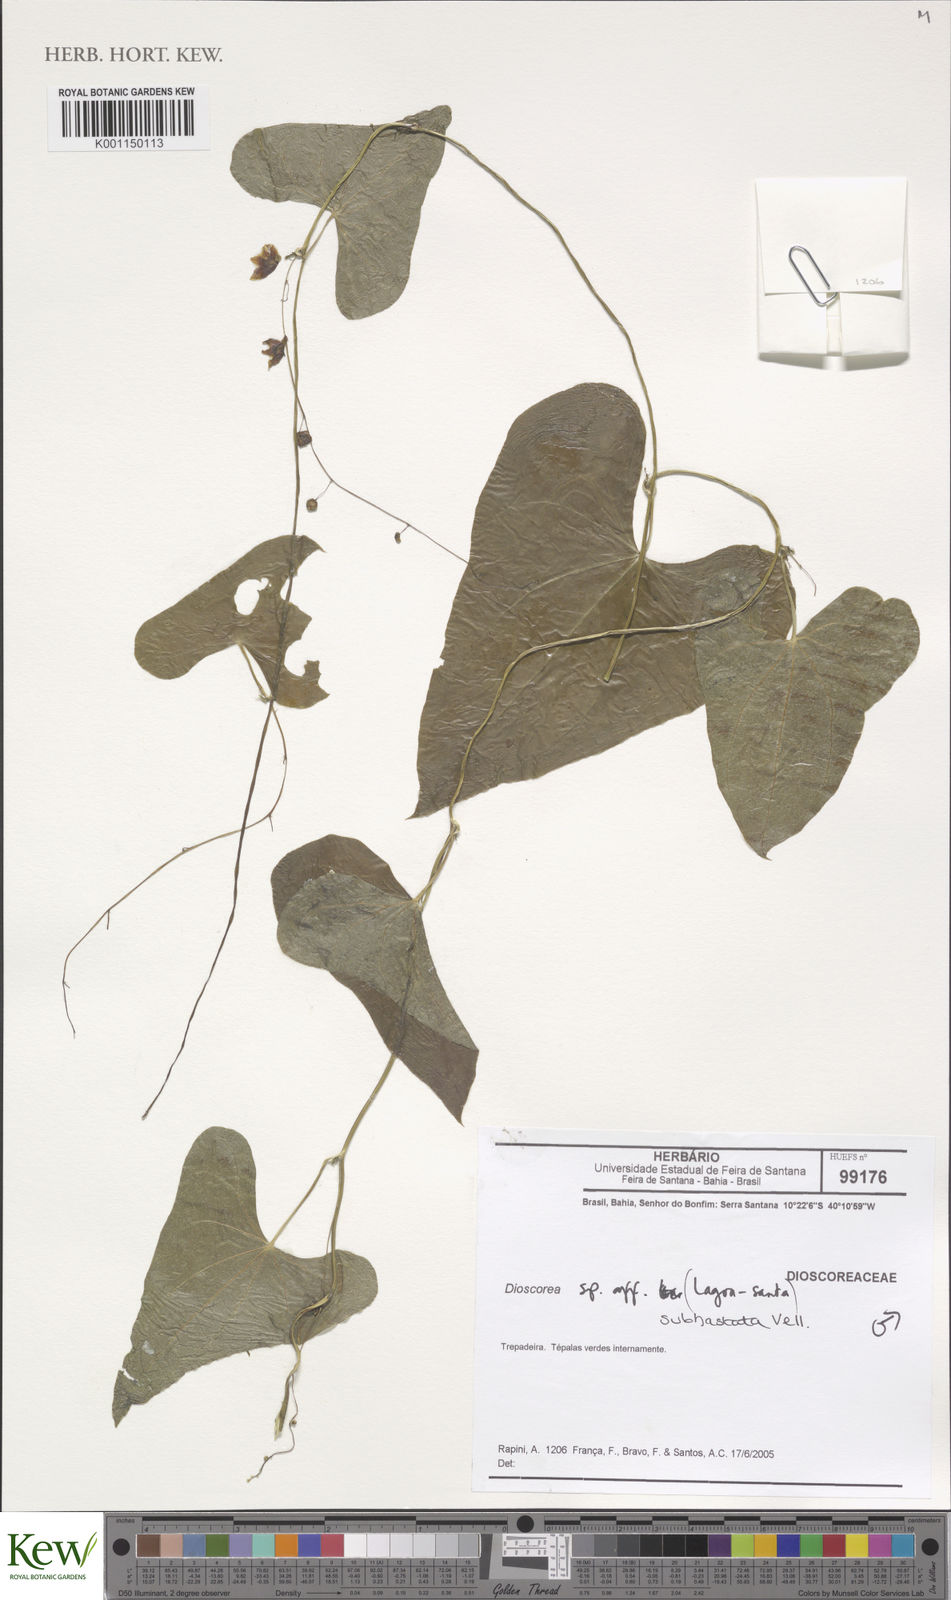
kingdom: Plantae
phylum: Tracheophyta
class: Liliopsida
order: Dioscoreales
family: Dioscoreaceae
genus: Dioscorea
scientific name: Dioscorea subhastata
